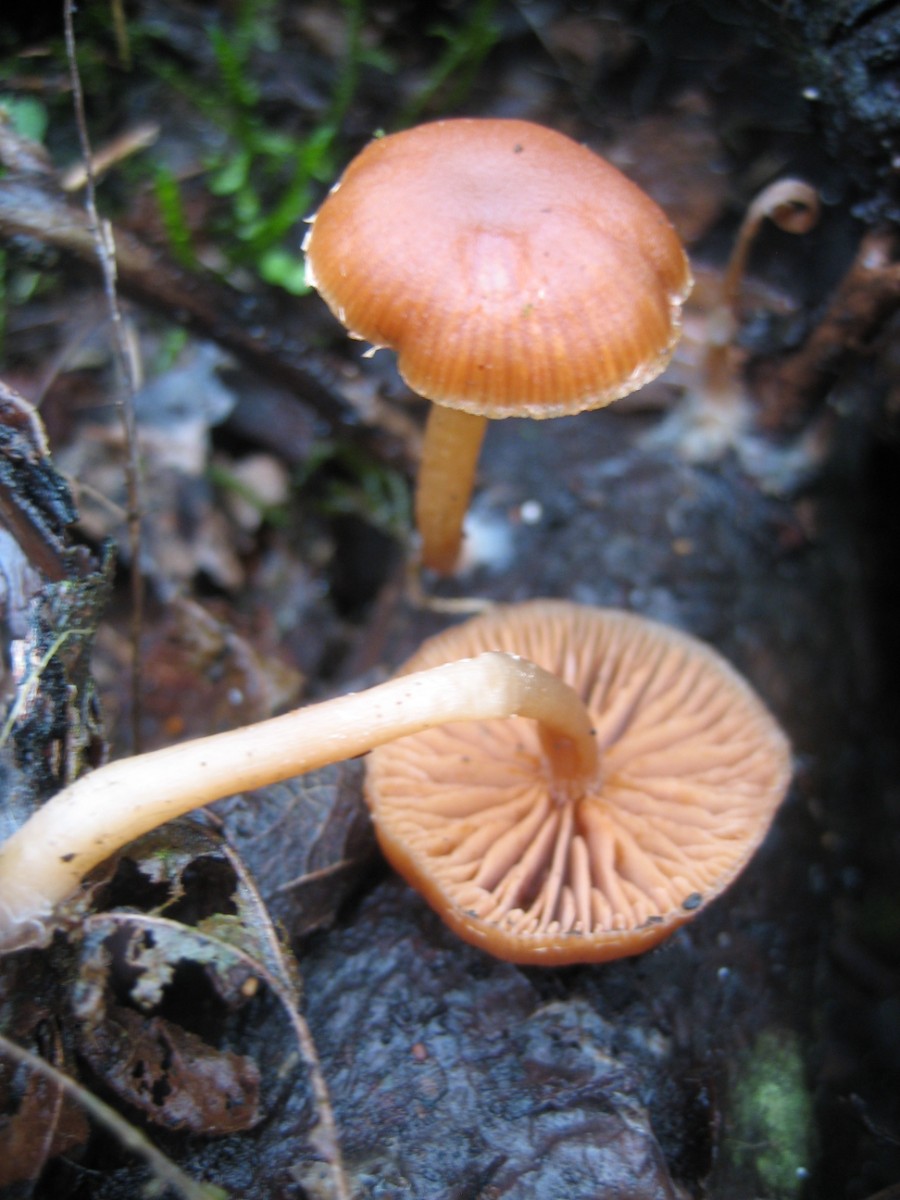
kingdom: Fungi
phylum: Basidiomycota
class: Agaricomycetes
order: Agaricales
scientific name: Agaricales
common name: champignonordenen
